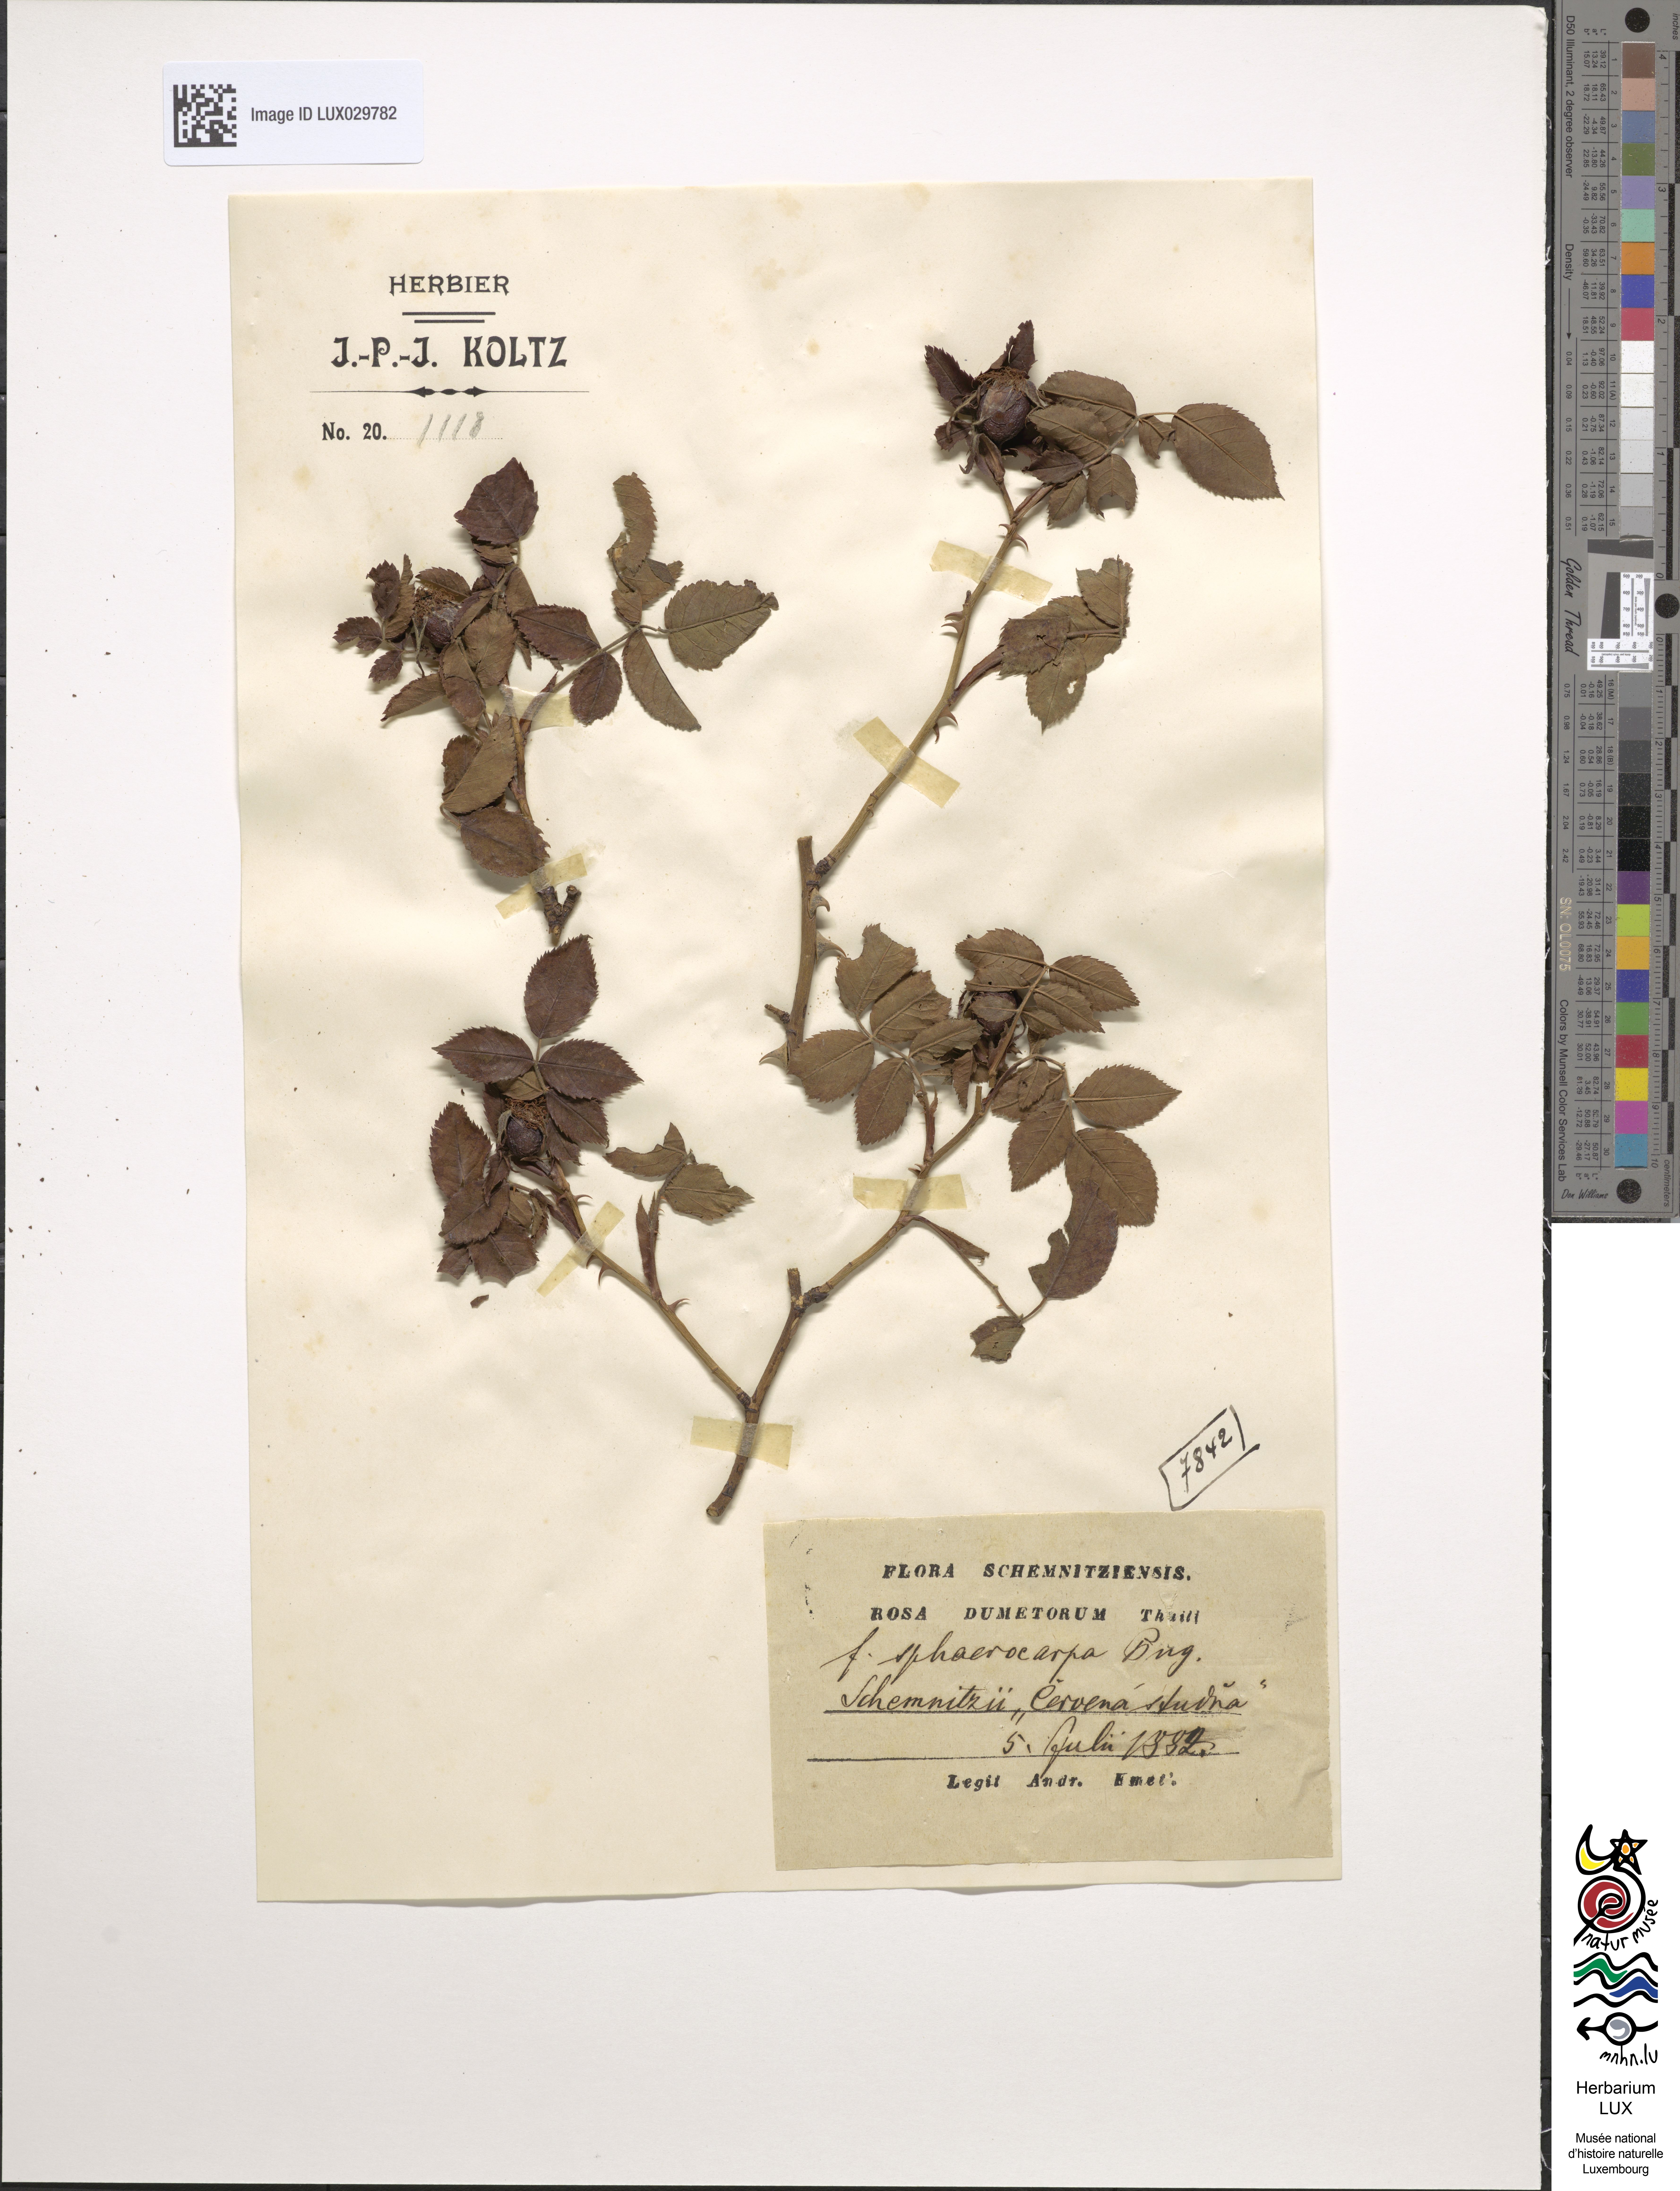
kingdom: Plantae
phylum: Tracheophyta
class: Magnoliopsida
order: Rosales
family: Rosaceae
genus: Rosa
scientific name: Rosa corymbifera
